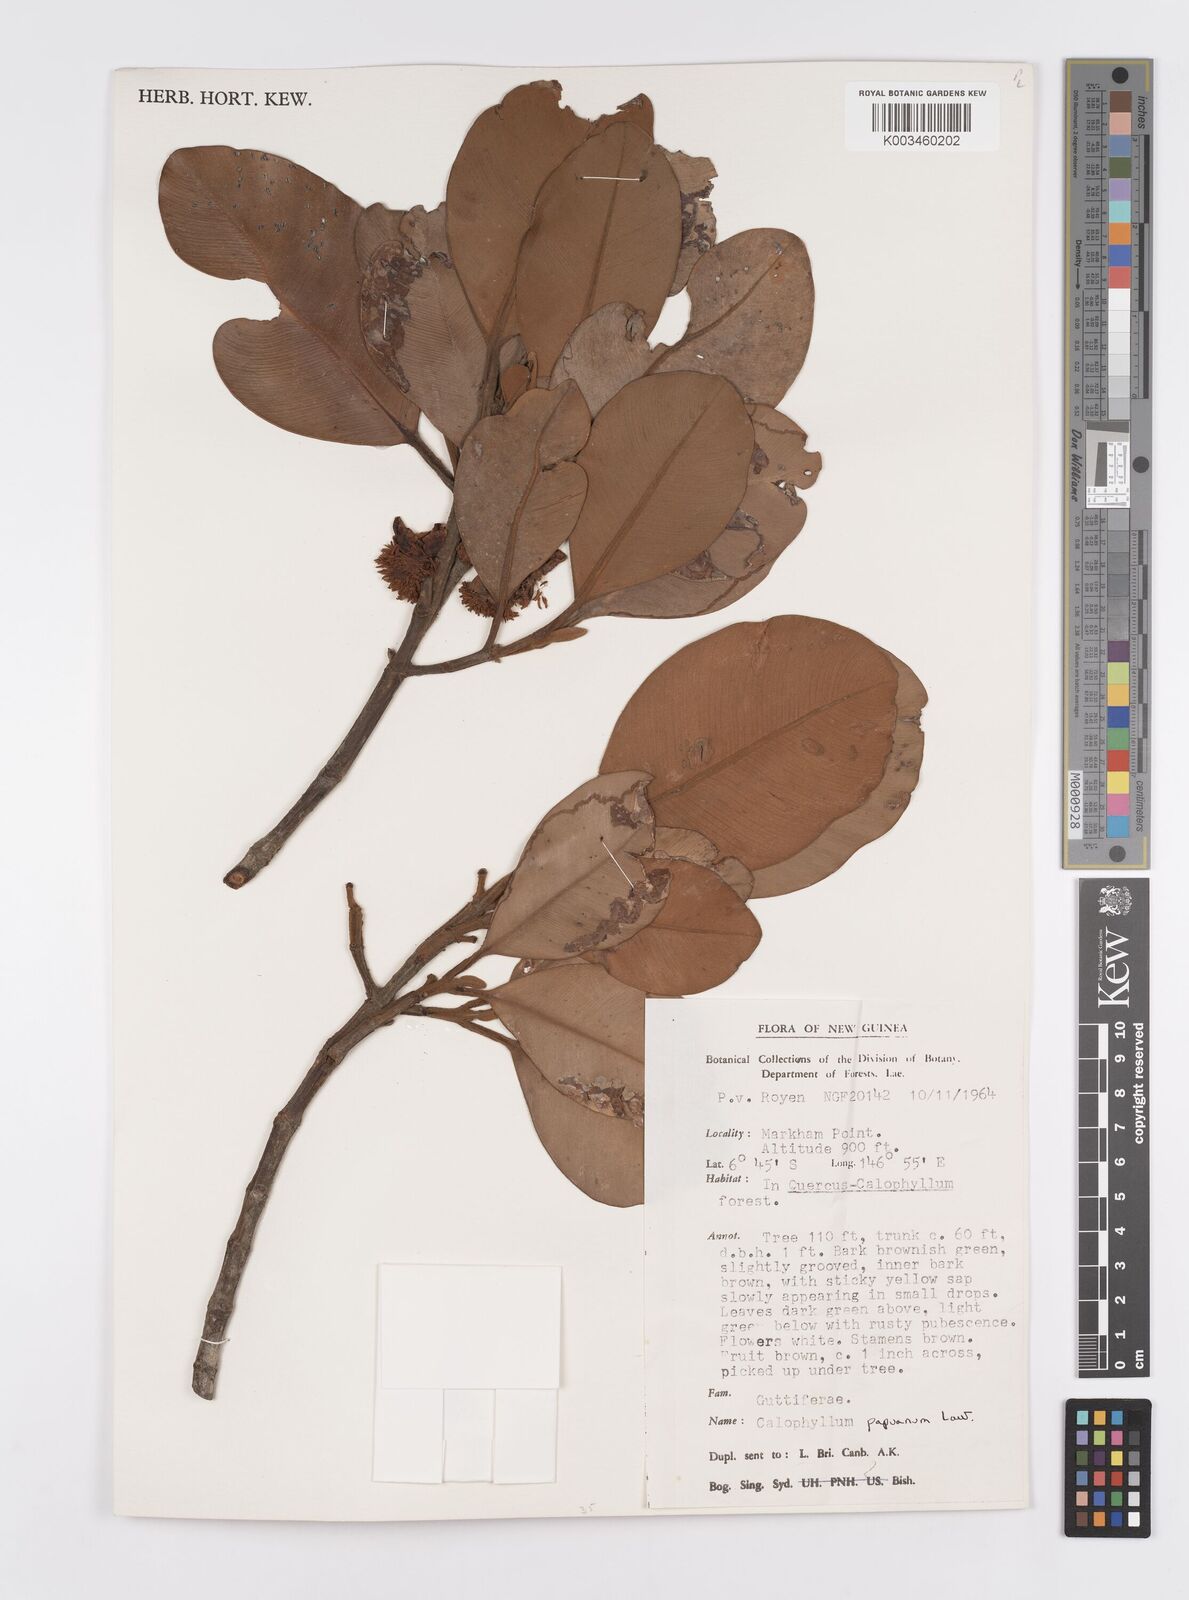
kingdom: Plantae
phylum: Tracheophyta
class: Magnoliopsida
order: Malpighiales
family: Calophyllaceae
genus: Calophyllum
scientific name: Calophyllum papuanum
